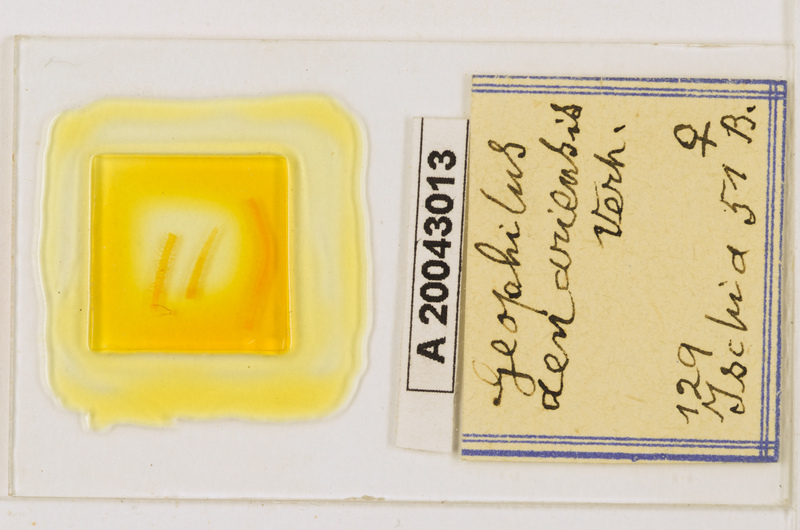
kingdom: Animalia
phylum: Arthropoda
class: Chilopoda
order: Geophilomorpha
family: Geophilidae
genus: Geophilus
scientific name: Geophilus aenariensis
